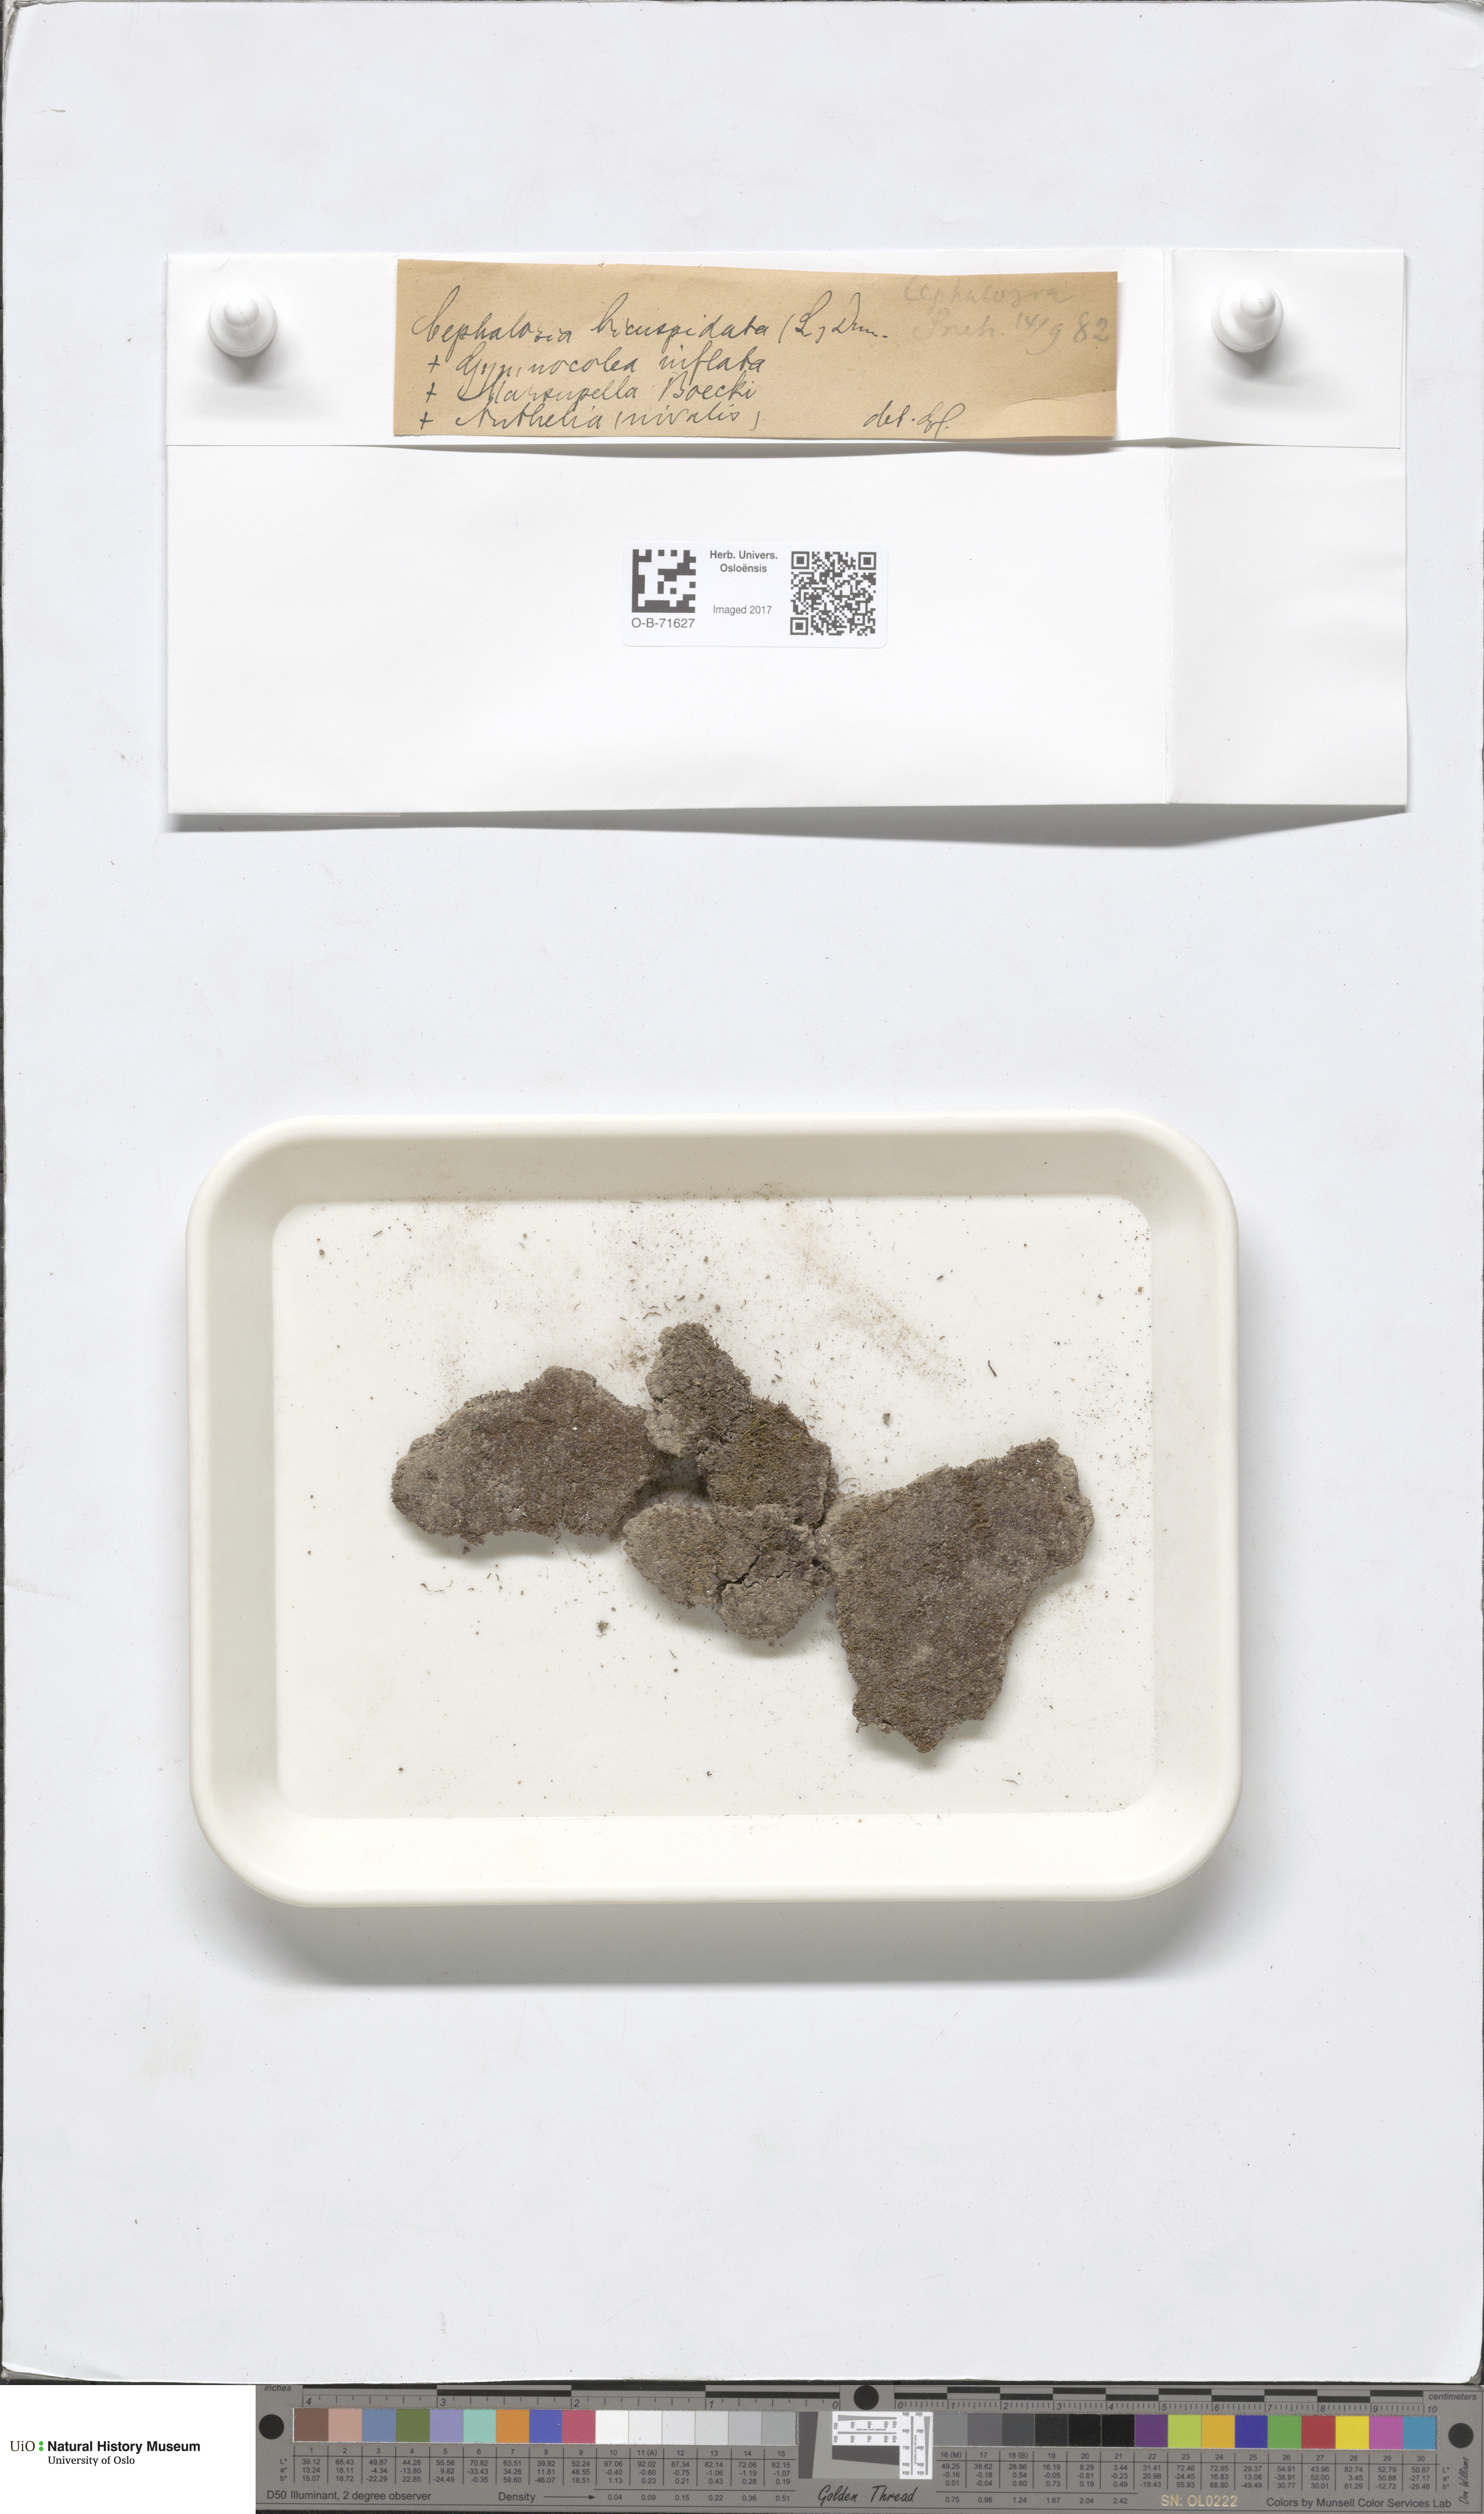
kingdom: Plantae
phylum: Marchantiophyta
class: Jungermanniopsida
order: Jungermanniales
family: Cephaloziaceae
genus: Cephalozia
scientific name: Cephalozia bicuspidata
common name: Two-horned pincerwort
